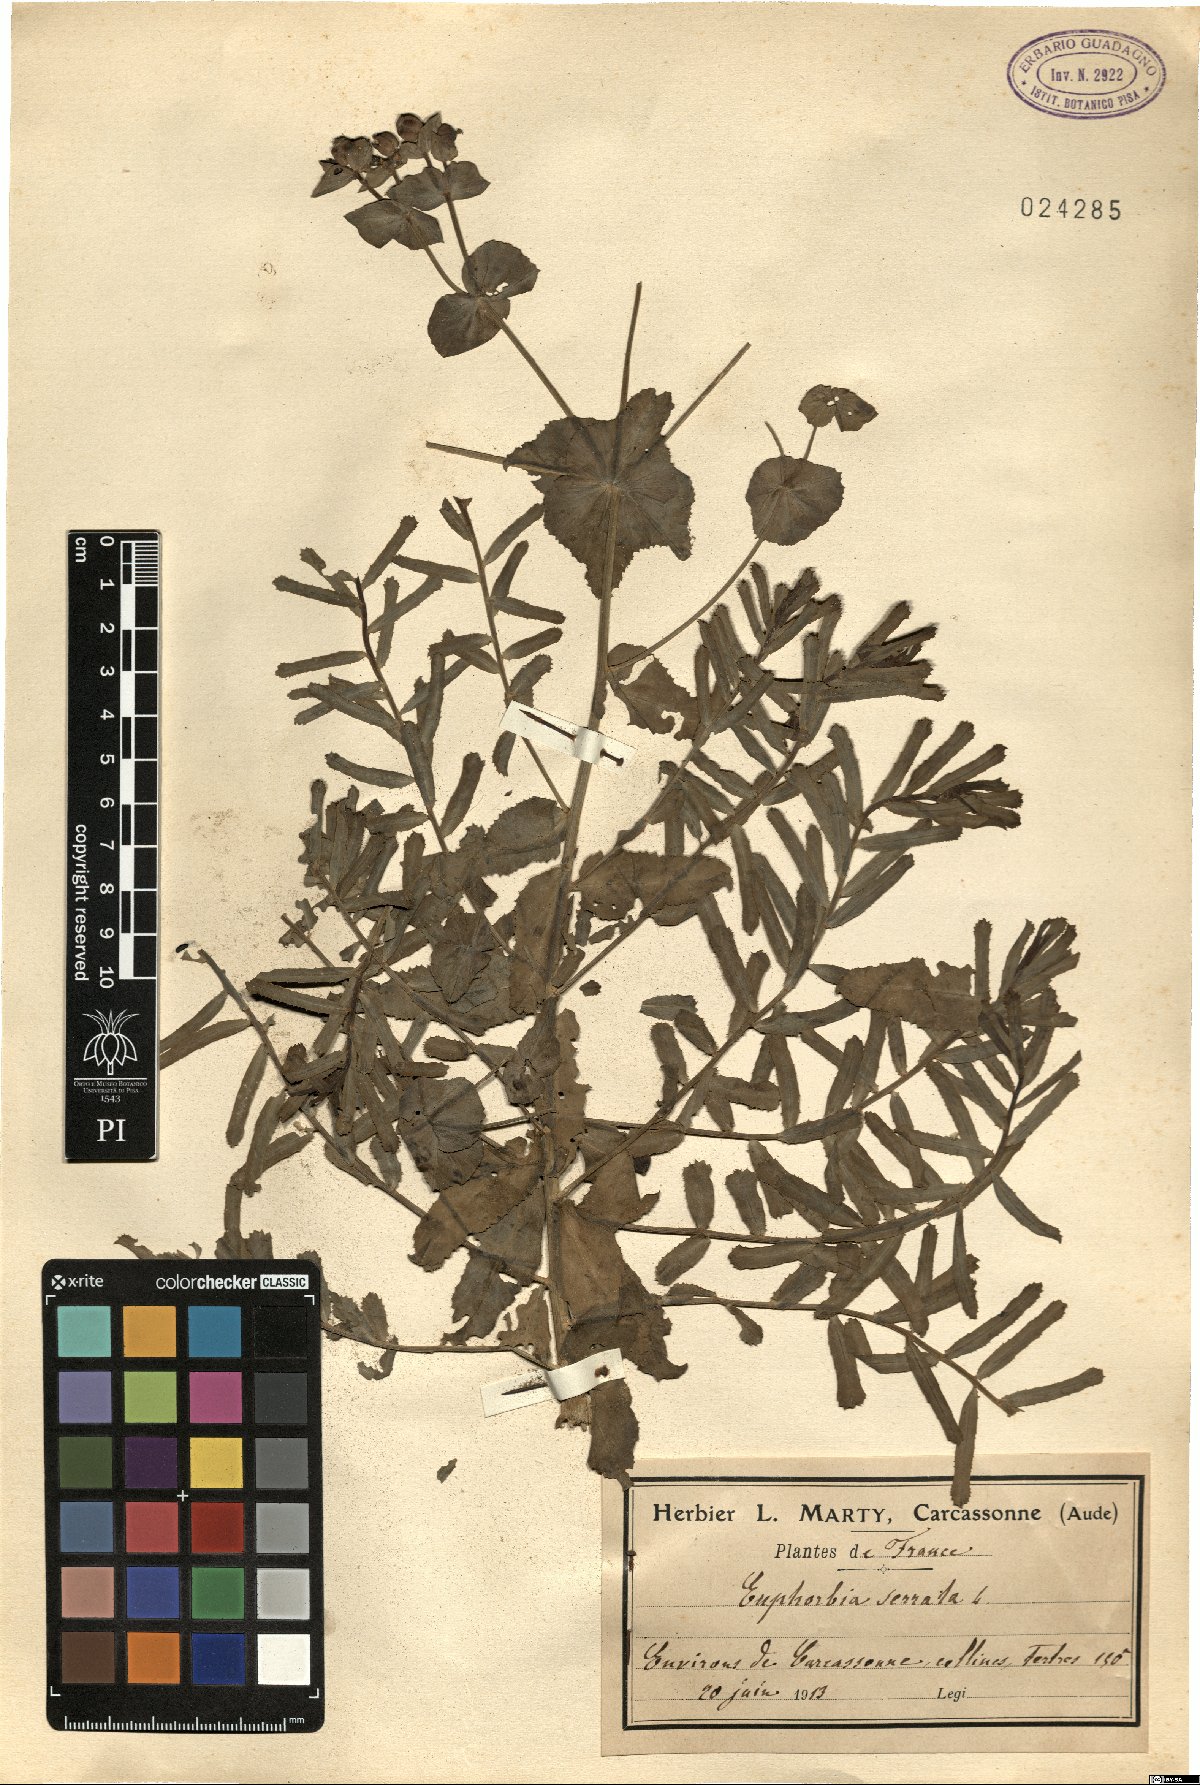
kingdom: Plantae
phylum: Tracheophyta
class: Magnoliopsida
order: Malpighiales
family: Euphorbiaceae
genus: Euphorbia
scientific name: Euphorbia serrata
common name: Serrate spurge
